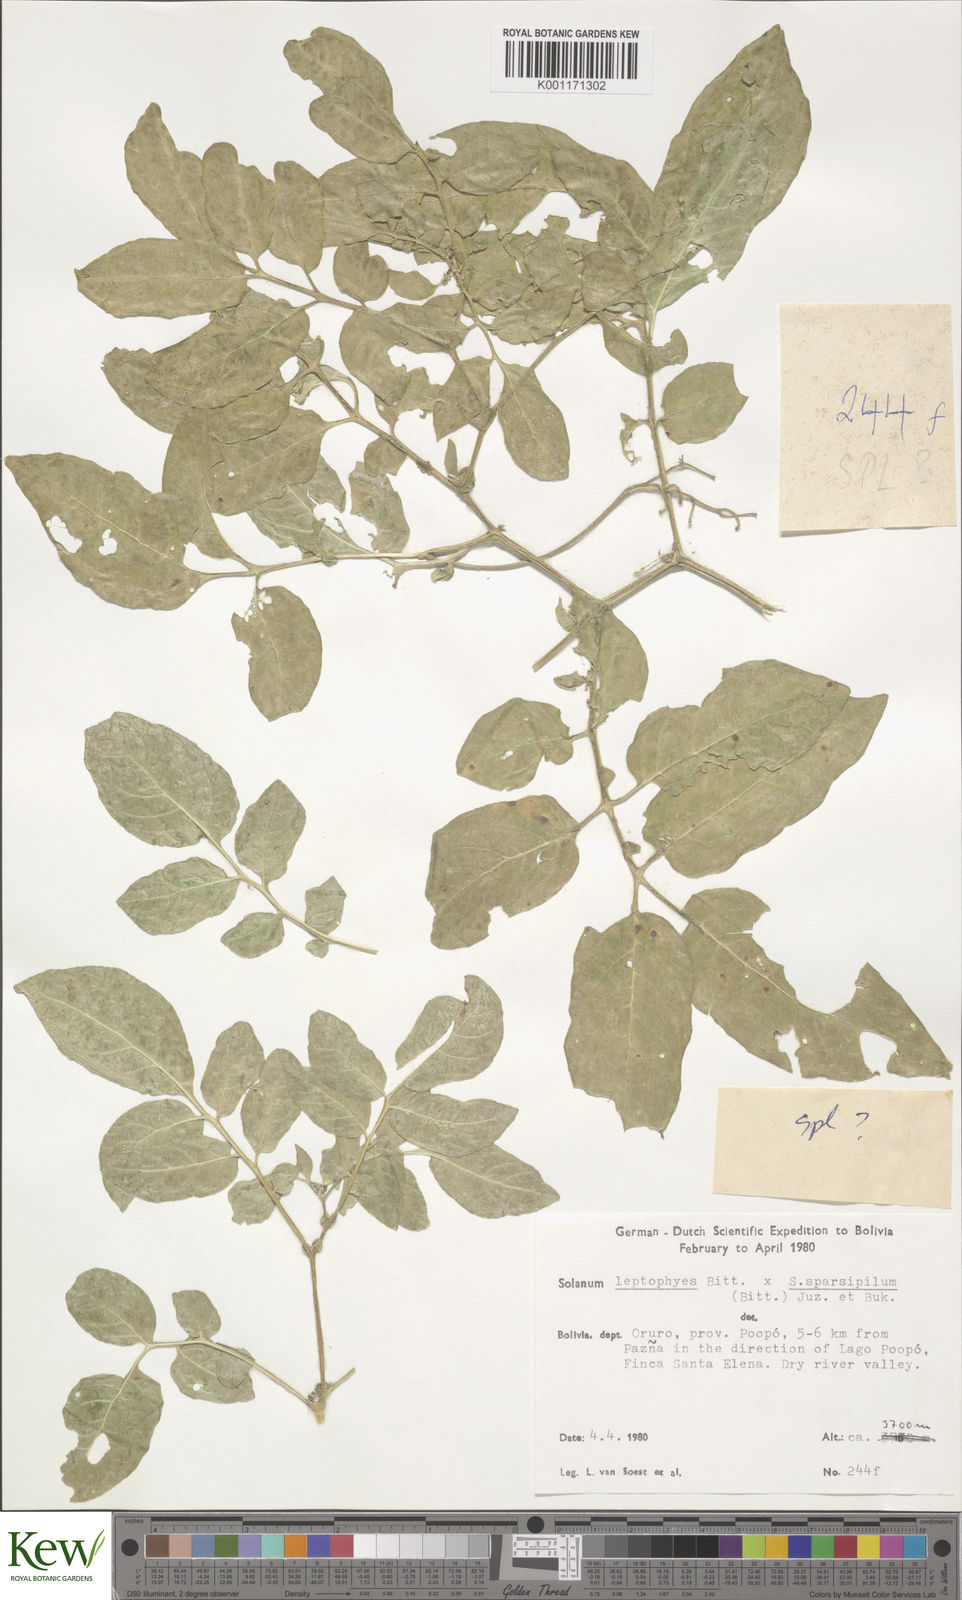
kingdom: Plantae
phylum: Tracheophyta
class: Magnoliopsida
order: Solanales
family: Solanaceae
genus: Solanum
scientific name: Solanum brevicaule
